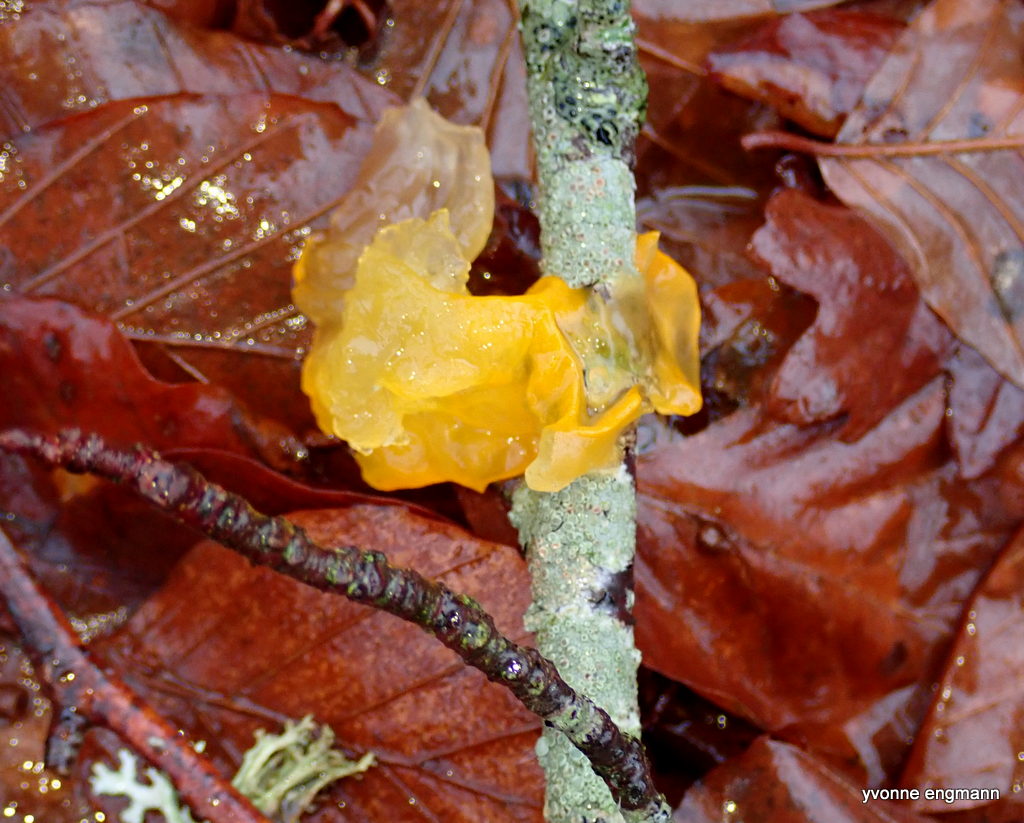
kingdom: Fungi
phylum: Basidiomycota
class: Tremellomycetes
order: Tremellales
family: Tremellaceae
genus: Tremella
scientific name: Tremella mesenterica
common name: gul bævresvamp
